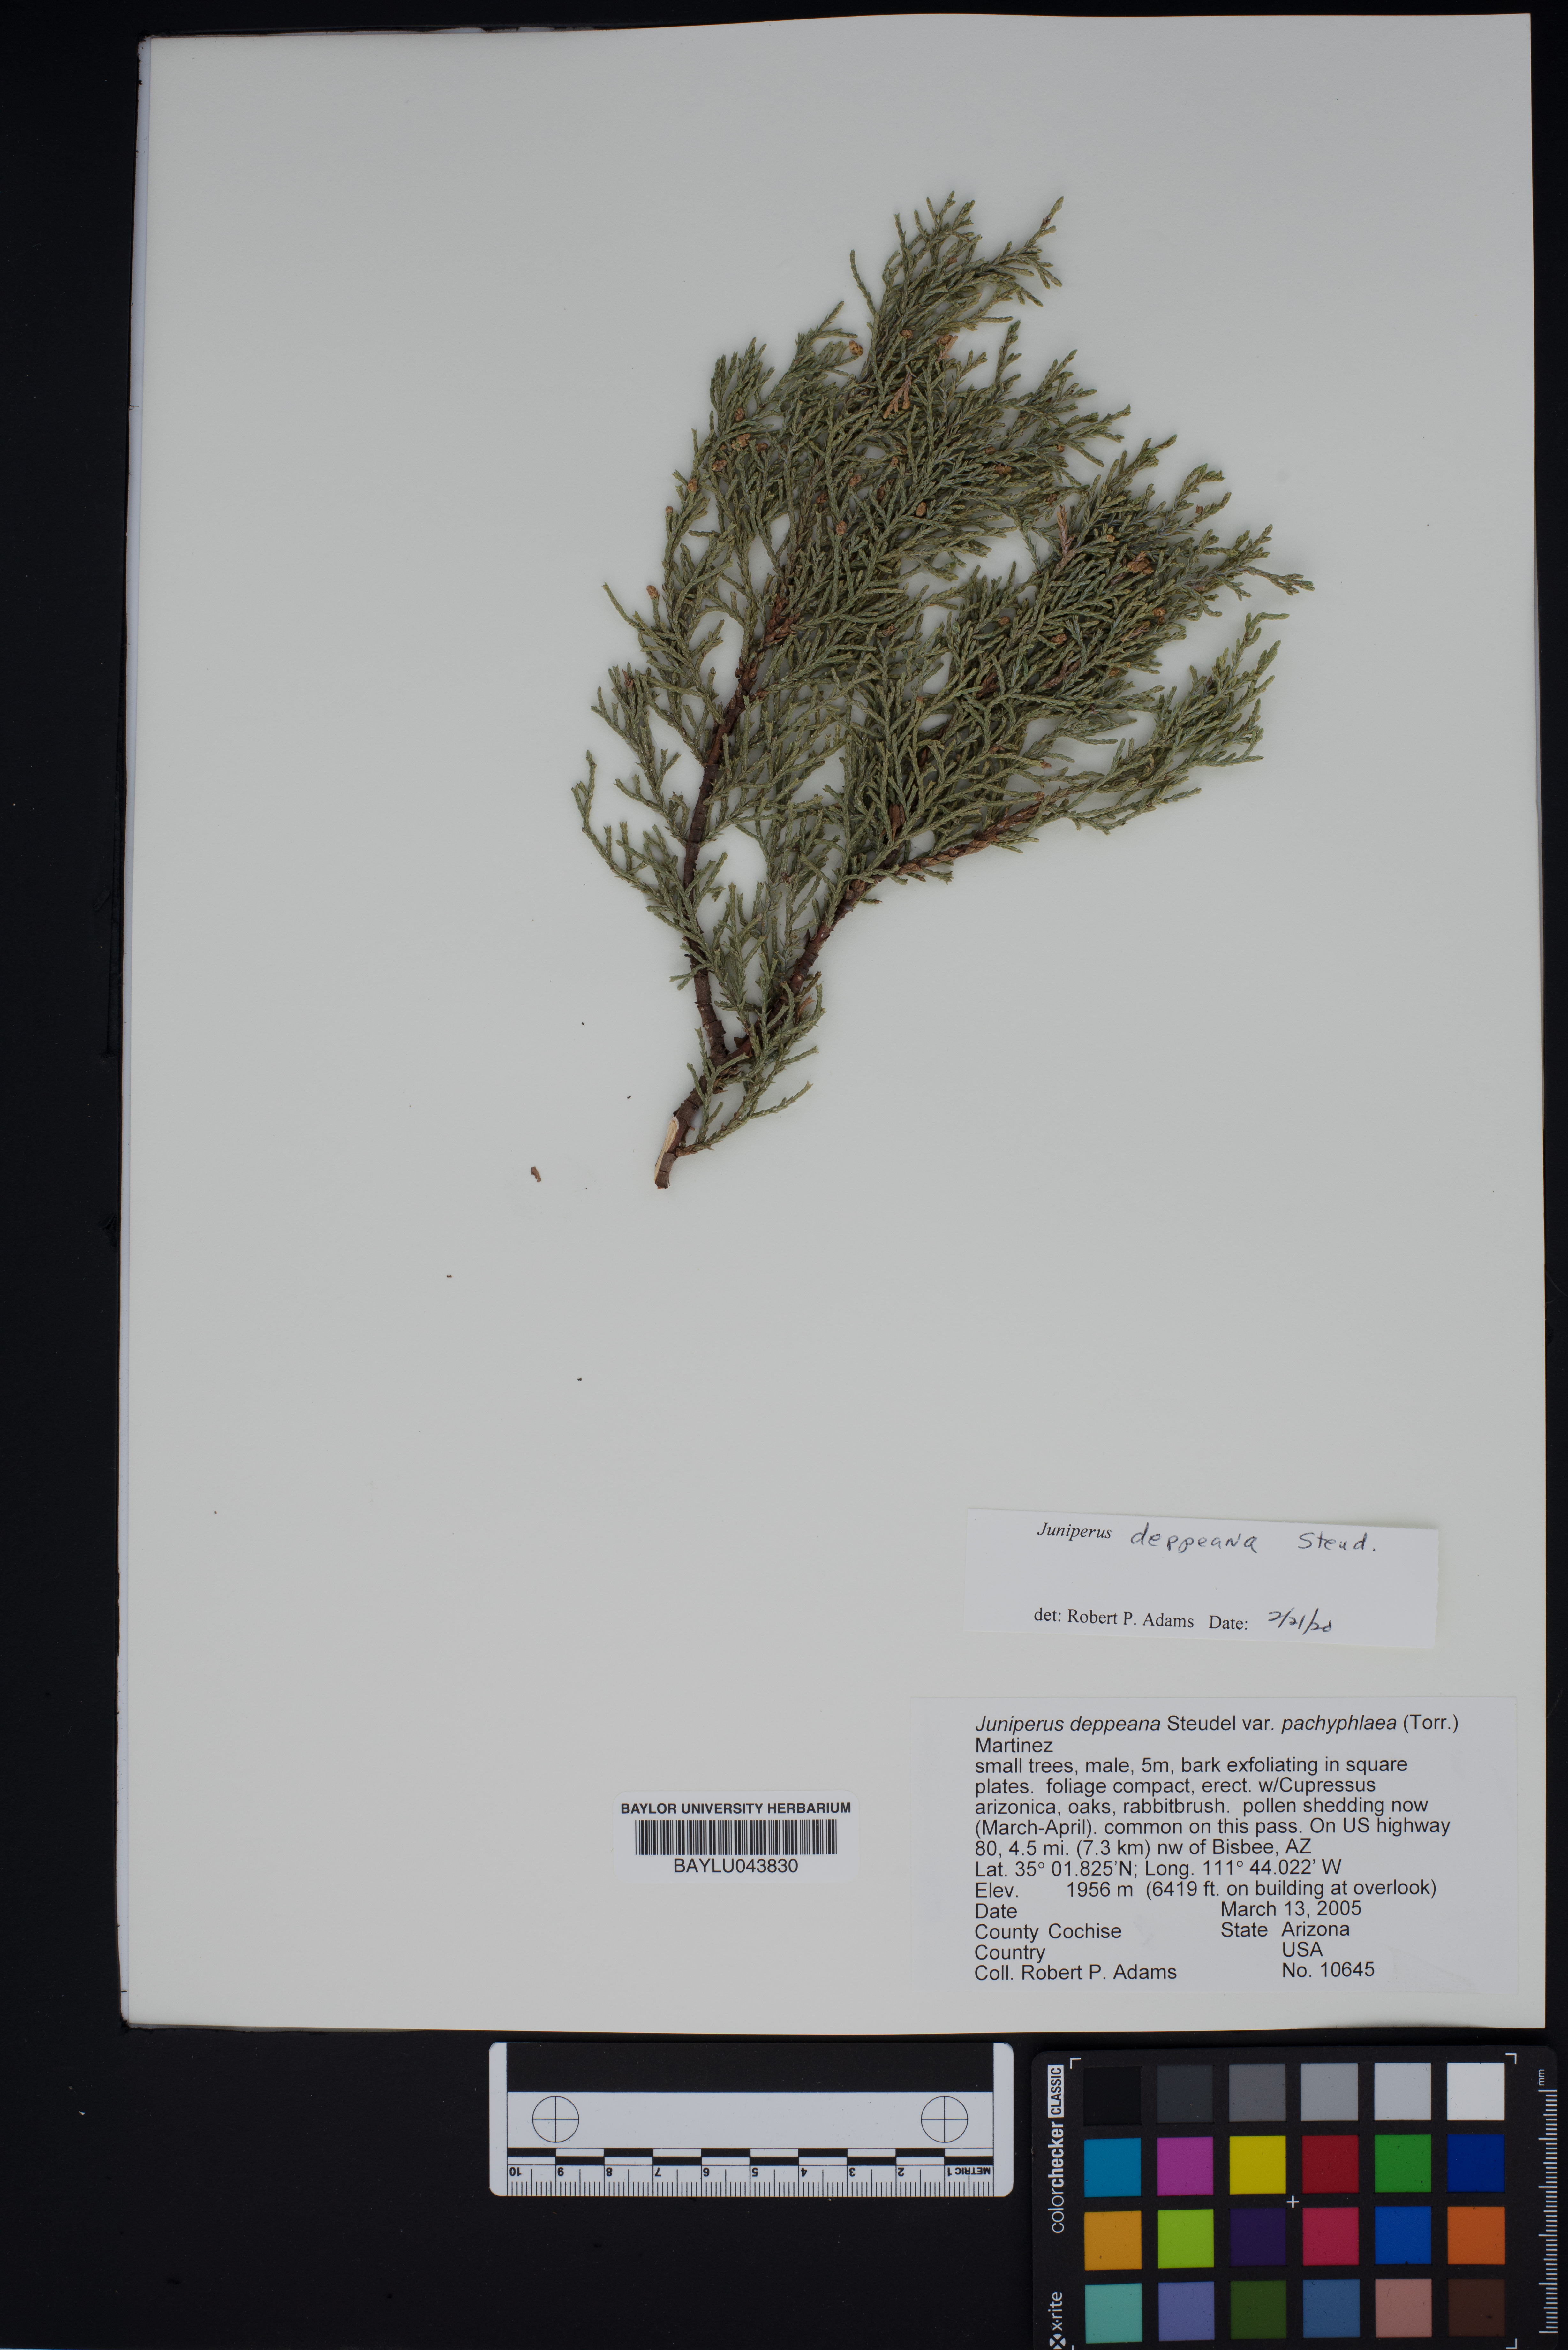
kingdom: Plantae
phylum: Tracheophyta
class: Pinopsida
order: Pinales
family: Cupressaceae
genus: Juniperus
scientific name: Juniperus deppeana
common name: Alligator juniper
